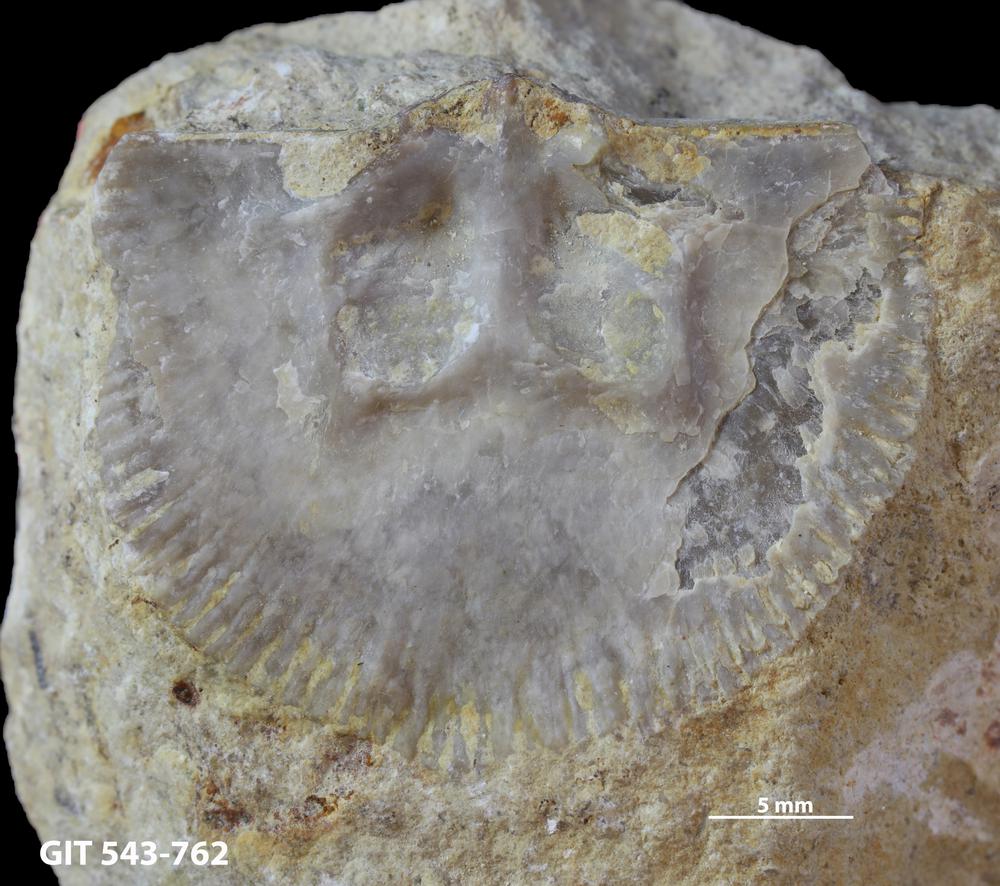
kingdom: Animalia
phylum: Brachiopoda
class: Rhynchonellata
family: Clitambonitidae
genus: Vellamo
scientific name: Vellamo Orthis verneuili
